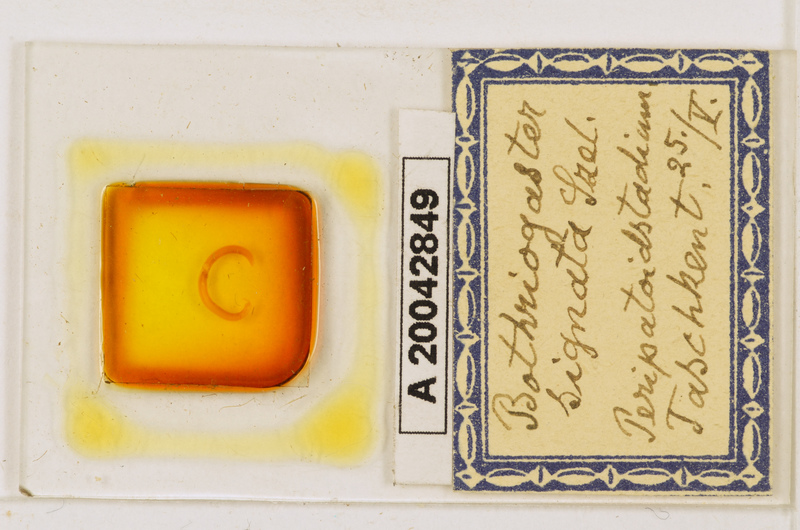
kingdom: Animalia
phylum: Arthropoda
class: Chilopoda
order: Geophilomorpha
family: Himantariidae
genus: Bothriogaster
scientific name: Bothriogaster signata
